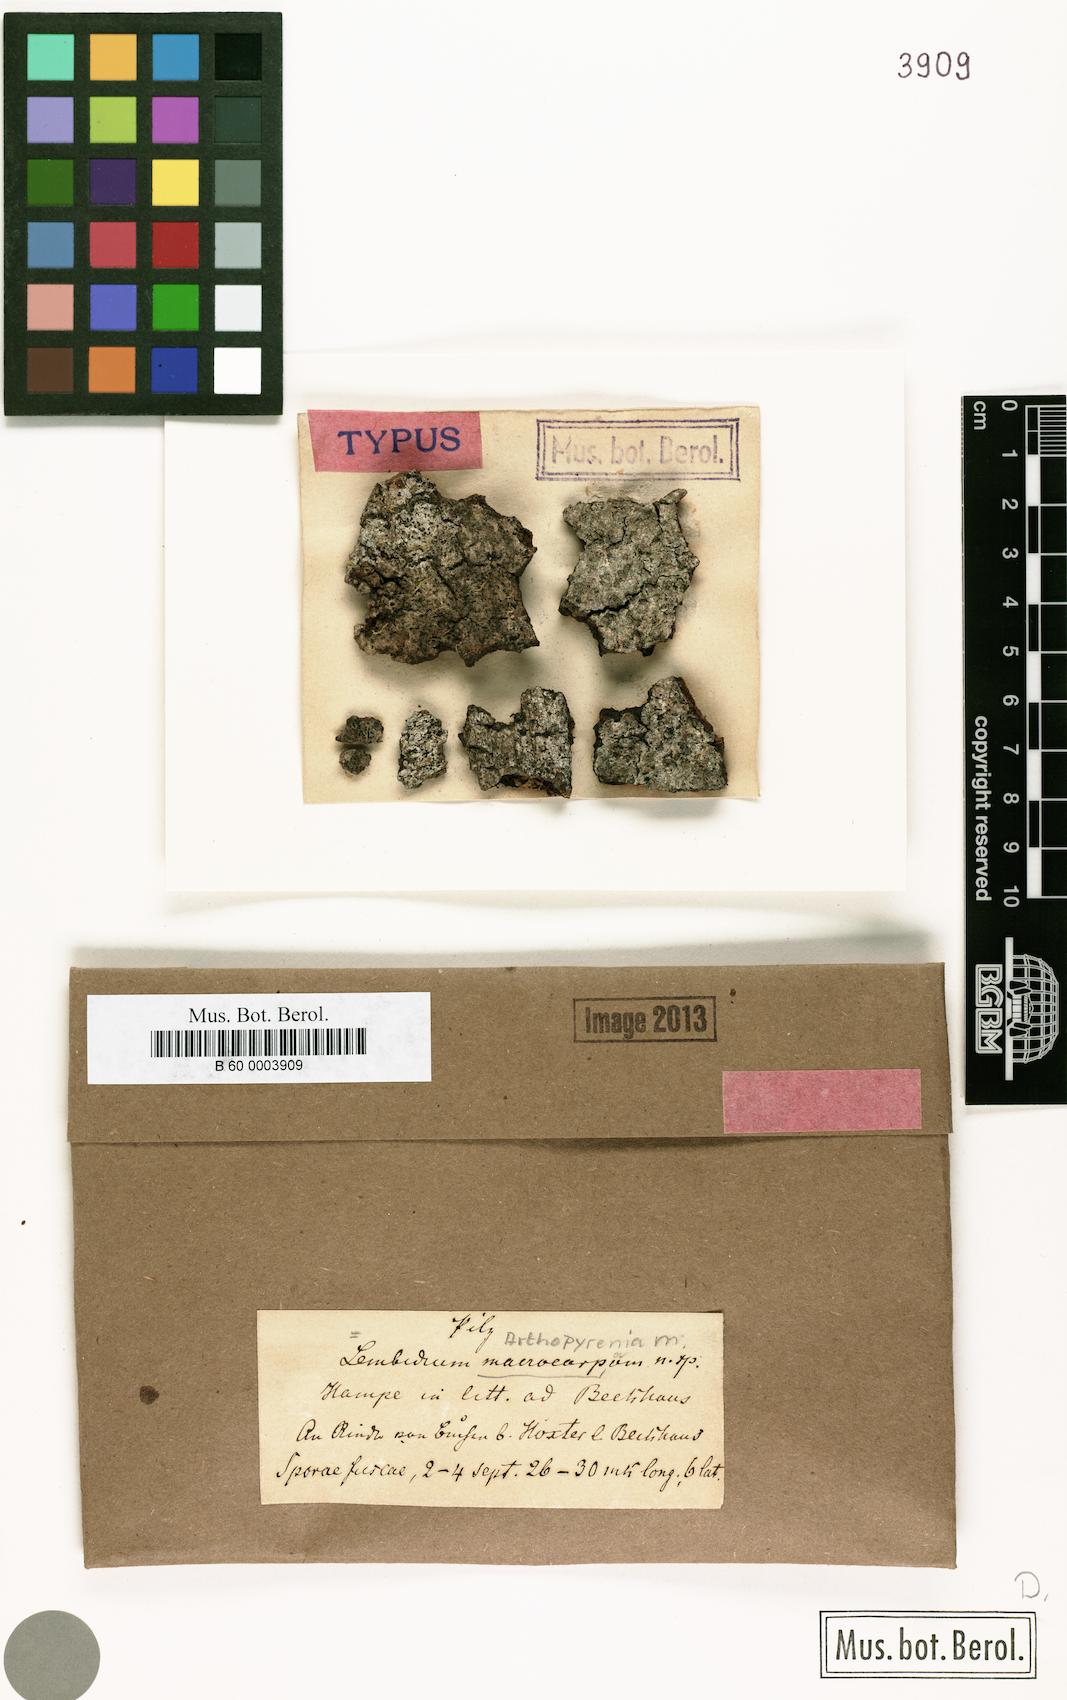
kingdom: Fungi
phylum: Ascomycota
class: Dothideomycetes
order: Monoblastiales
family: Monoblastiaceae
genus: Anisomeridium
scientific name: Anisomeridium macrocarpum
